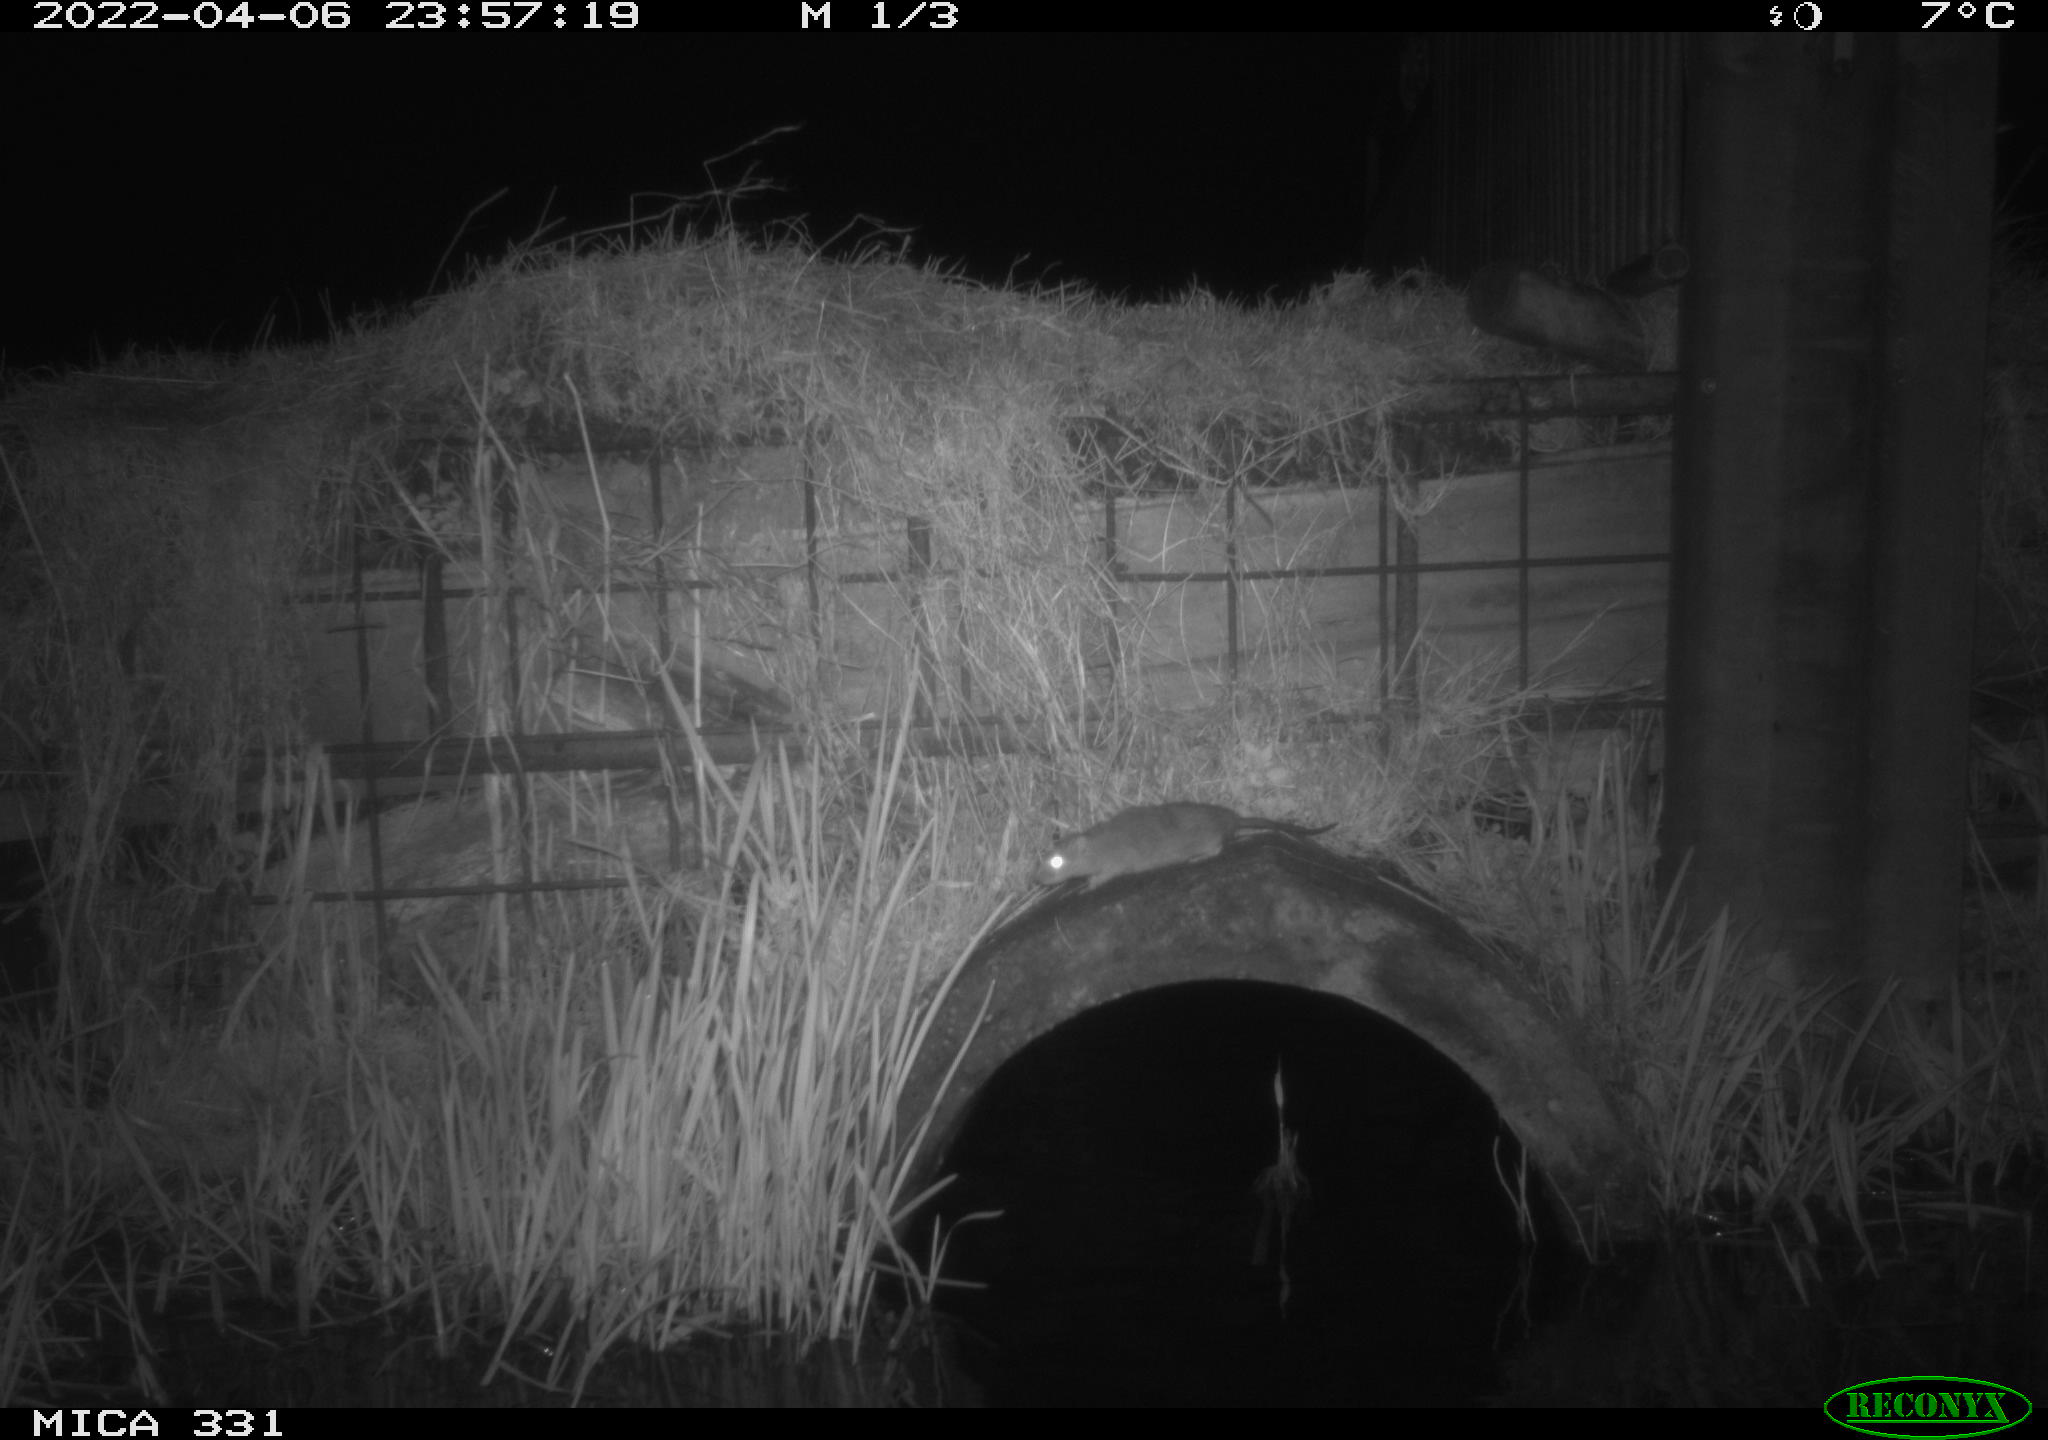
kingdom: Animalia
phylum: Chordata
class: Mammalia
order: Rodentia
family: Muridae
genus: Rattus
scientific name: Rattus norvegicus
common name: Brown rat
